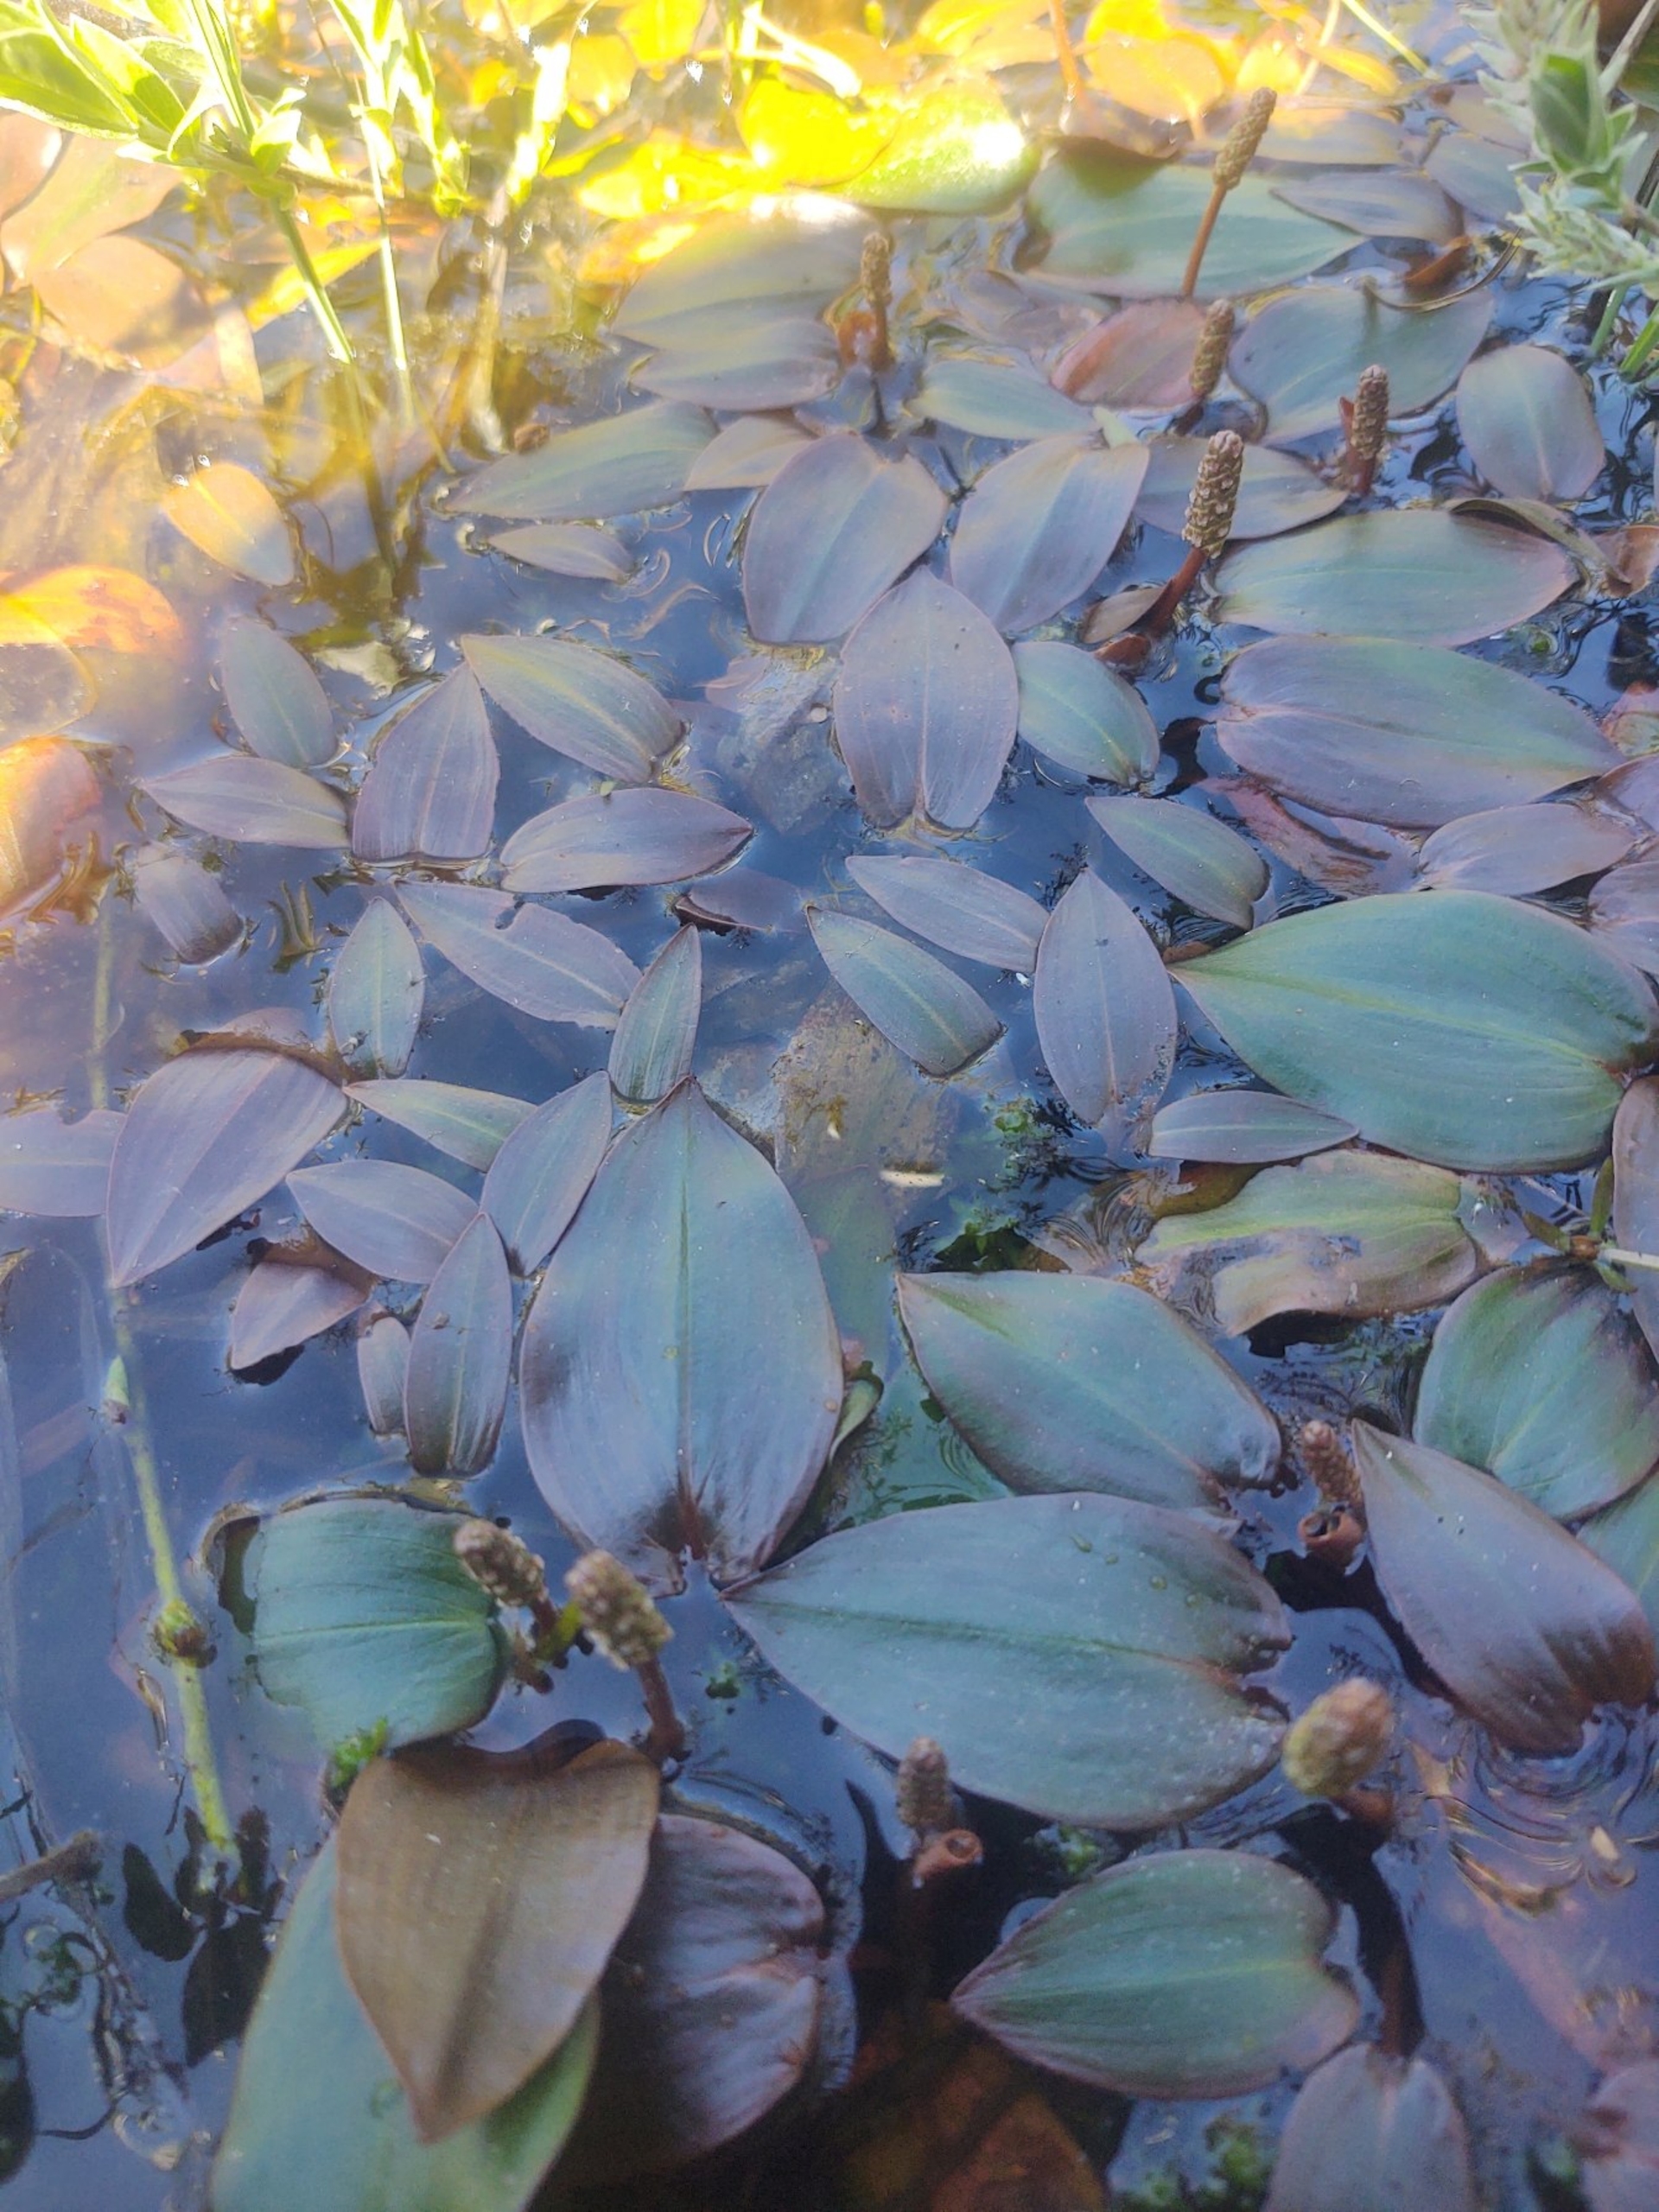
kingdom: Plantae
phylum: Tracheophyta
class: Liliopsida
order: Alismatales
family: Potamogetonaceae
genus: Potamogeton
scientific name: Potamogeton polygonifolius
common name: Aflangbladet vandaks
